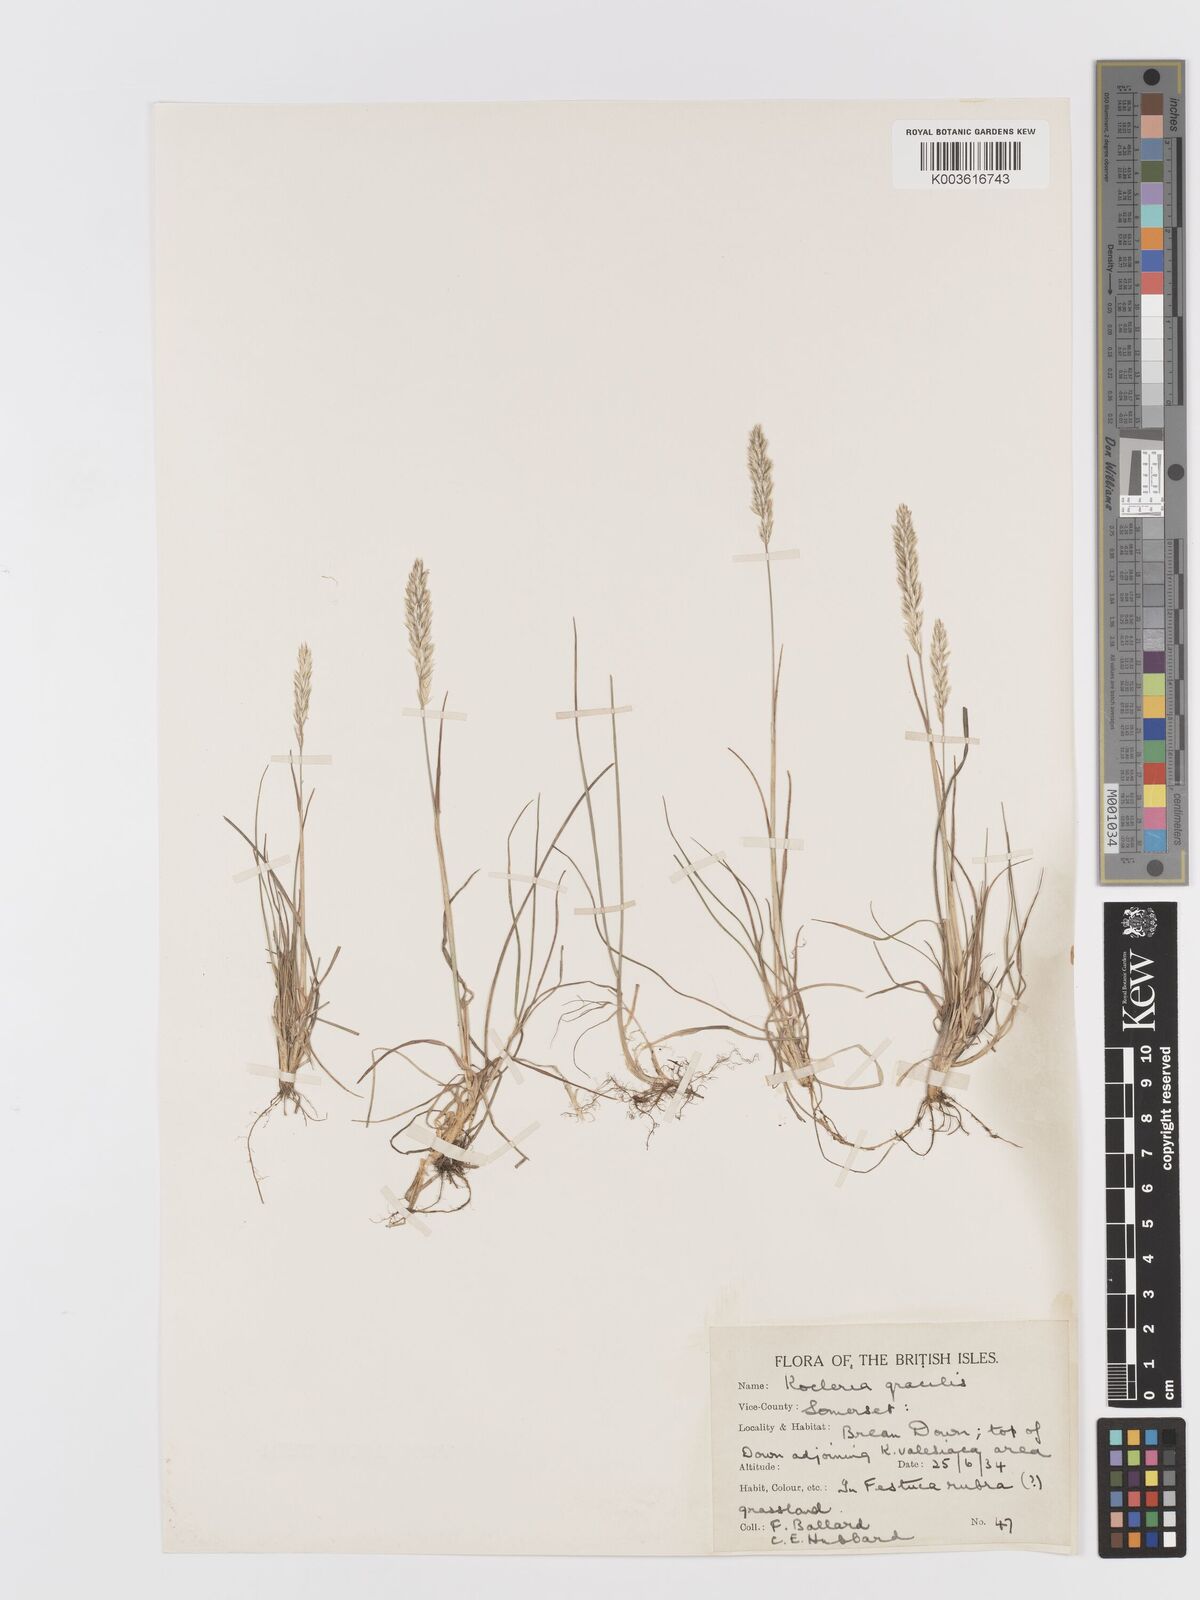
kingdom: Plantae
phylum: Tracheophyta
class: Liliopsida
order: Poales
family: Poaceae
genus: Koeleria
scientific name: Koeleria
